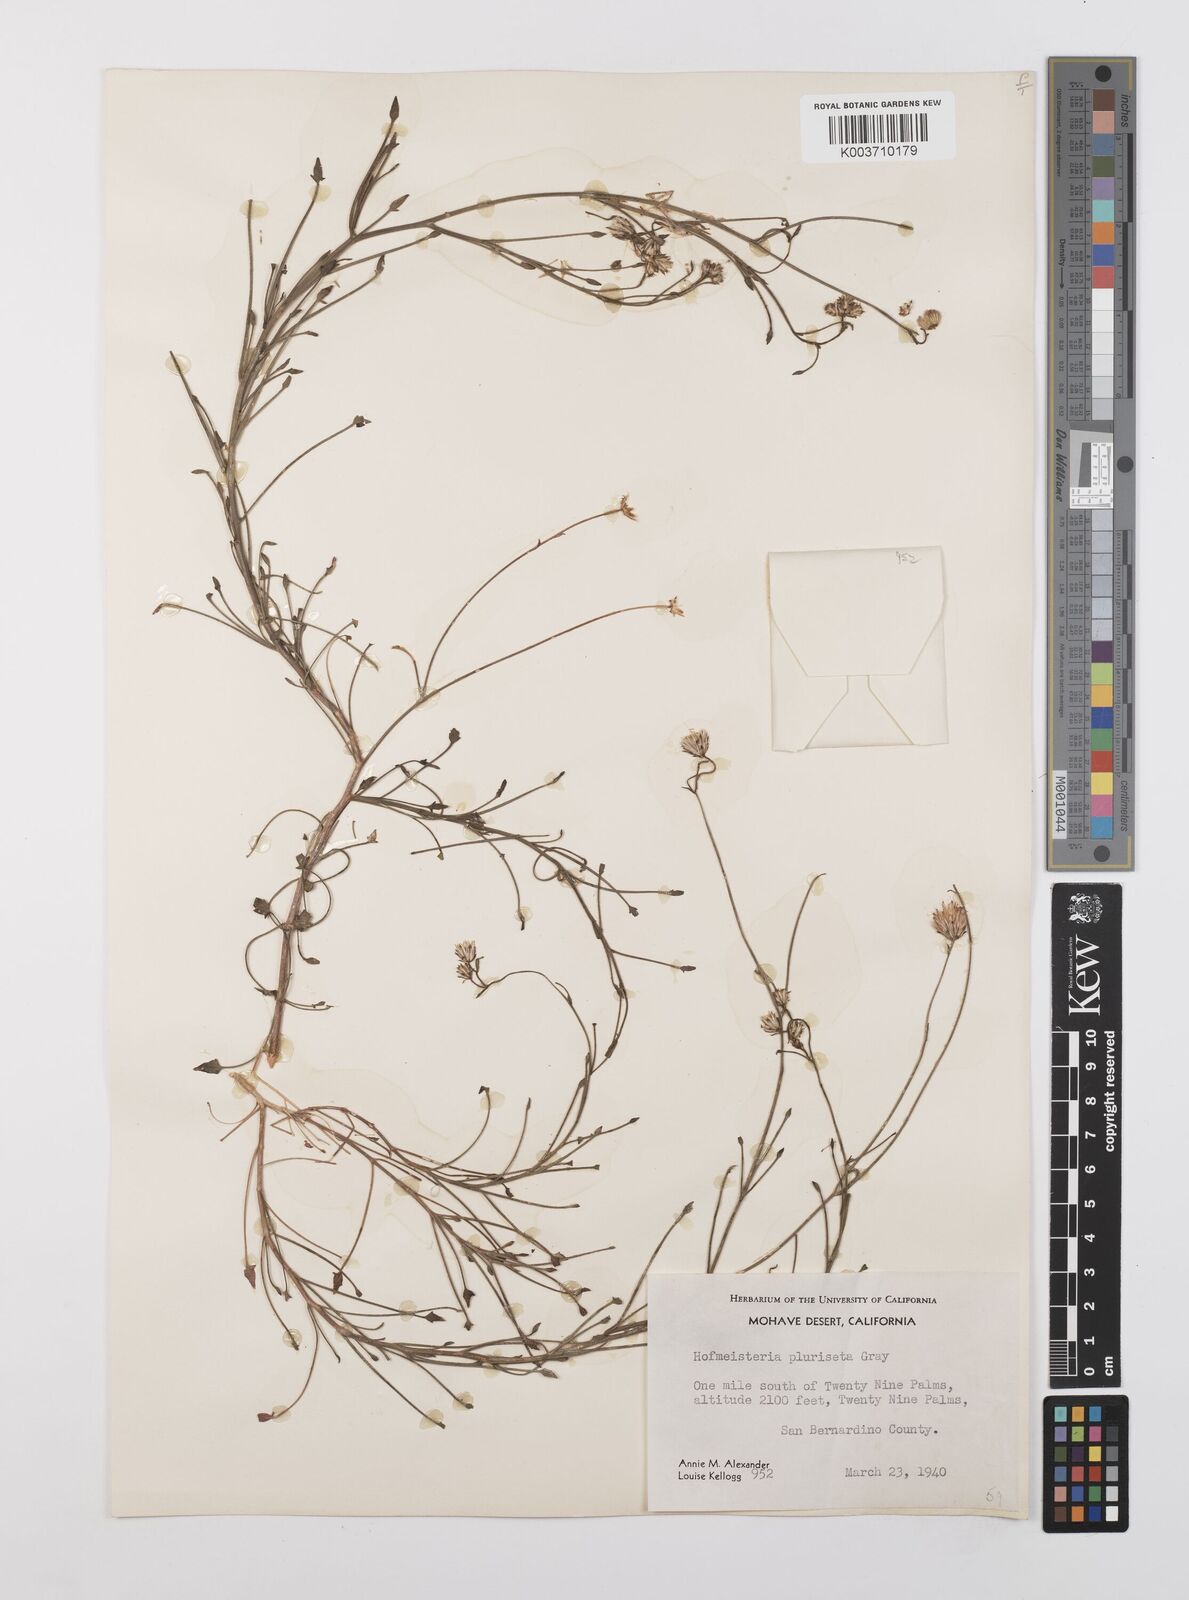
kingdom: Plantae
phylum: Tracheophyta
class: Magnoliopsida
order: Asterales
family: Asteraceae
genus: Pleurocoronis
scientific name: Pleurocoronis pluriseta
